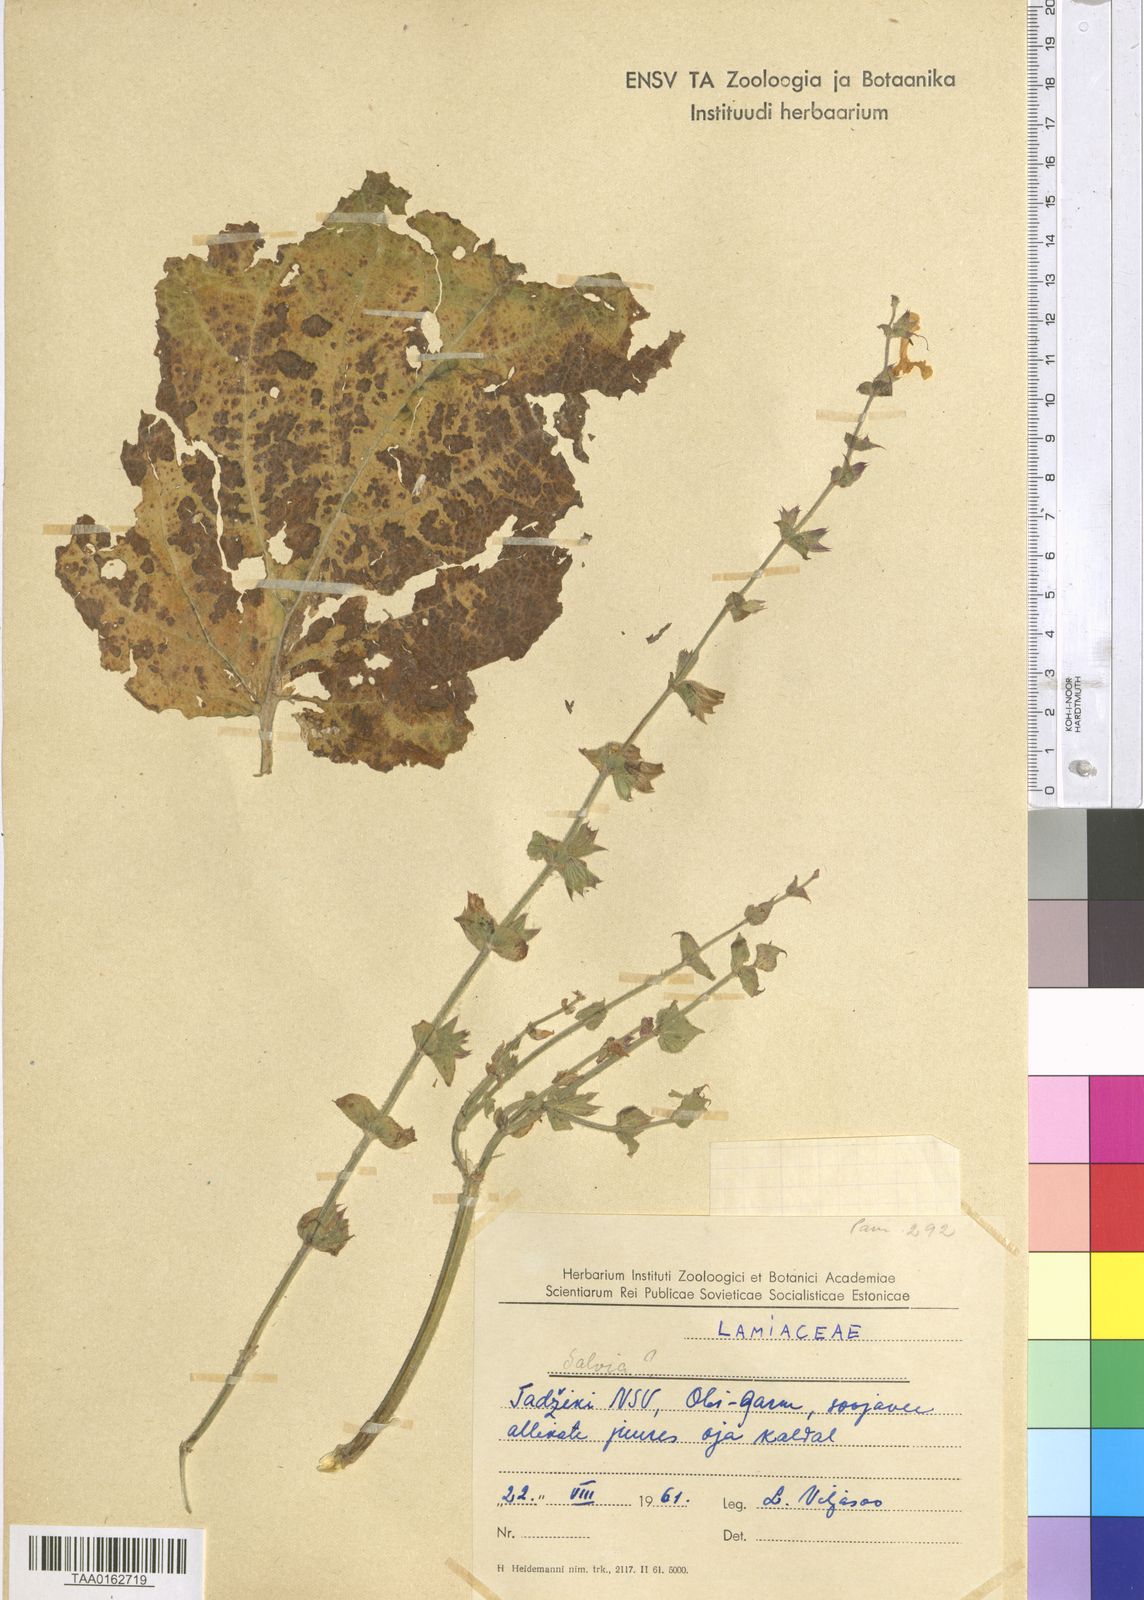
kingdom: Plantae
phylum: Tracheophyta
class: Magnoliopsida
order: Lamiales
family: Lamiaceae
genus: Salvia
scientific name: Salvia
